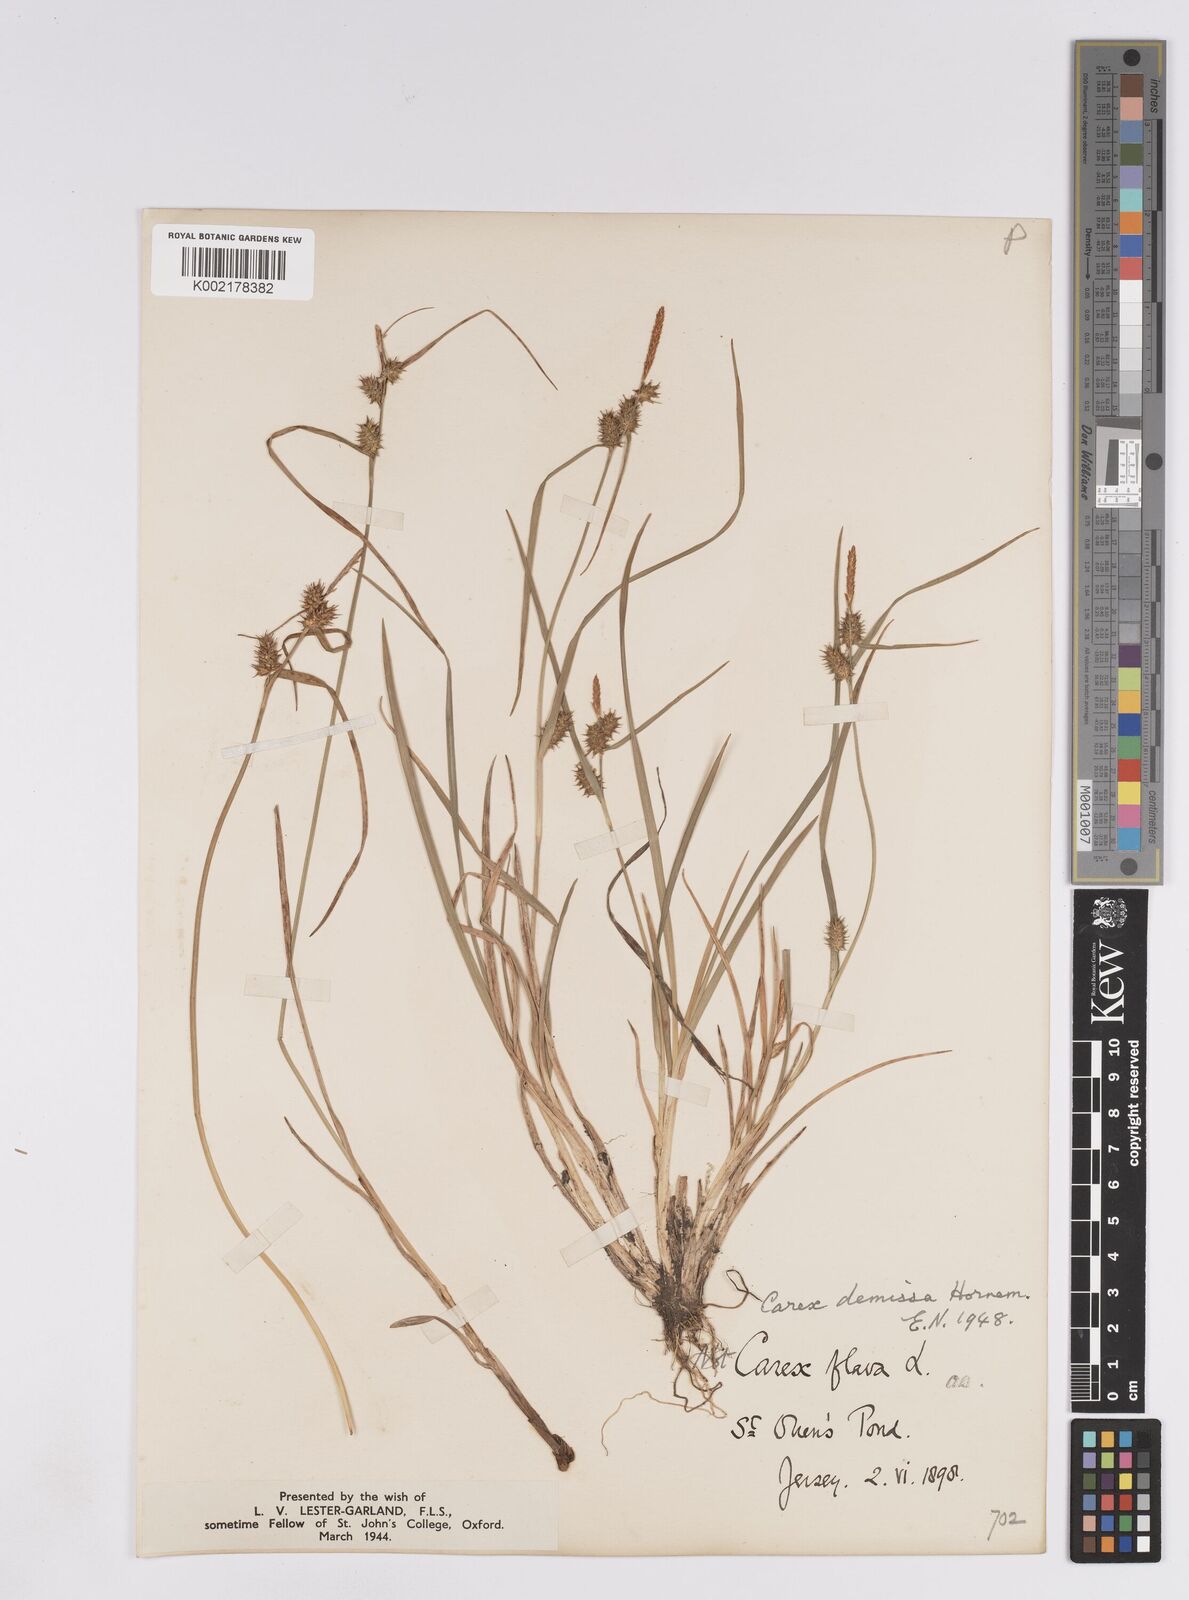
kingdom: Plantae
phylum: Tracheophyta
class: Liliopsida
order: Poales
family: Cyperaceae
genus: Carex
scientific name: Carex demissa
